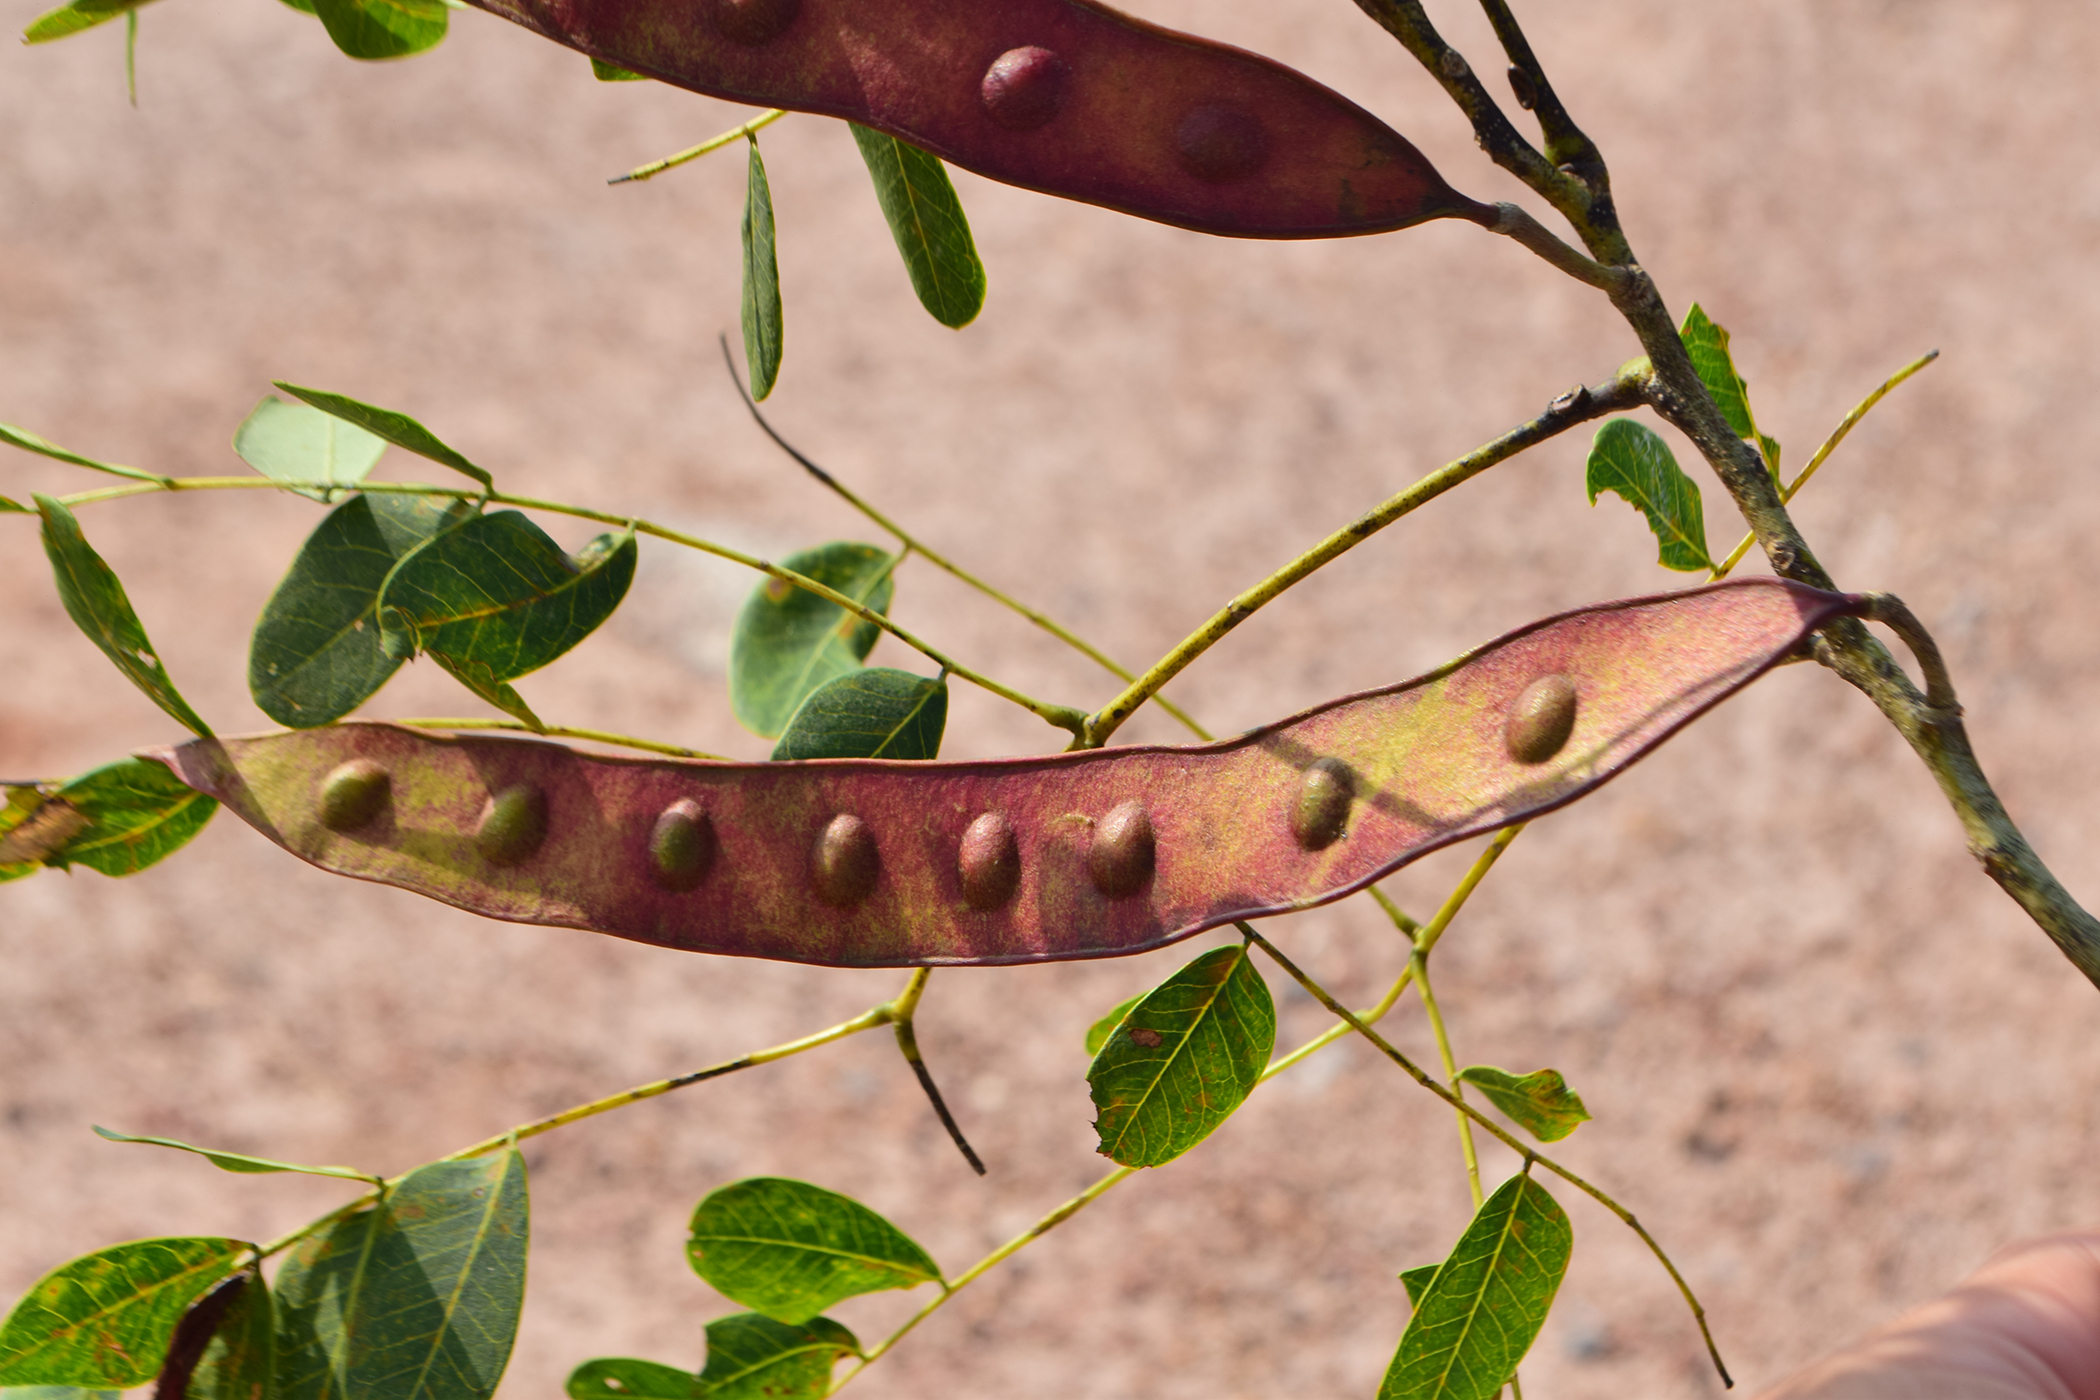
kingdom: Plantae
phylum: Tracheophyta
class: Magnoliopsida
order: Fabales
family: Fabaceae
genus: Albizia
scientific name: Albizia procera
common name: Tall albizia
